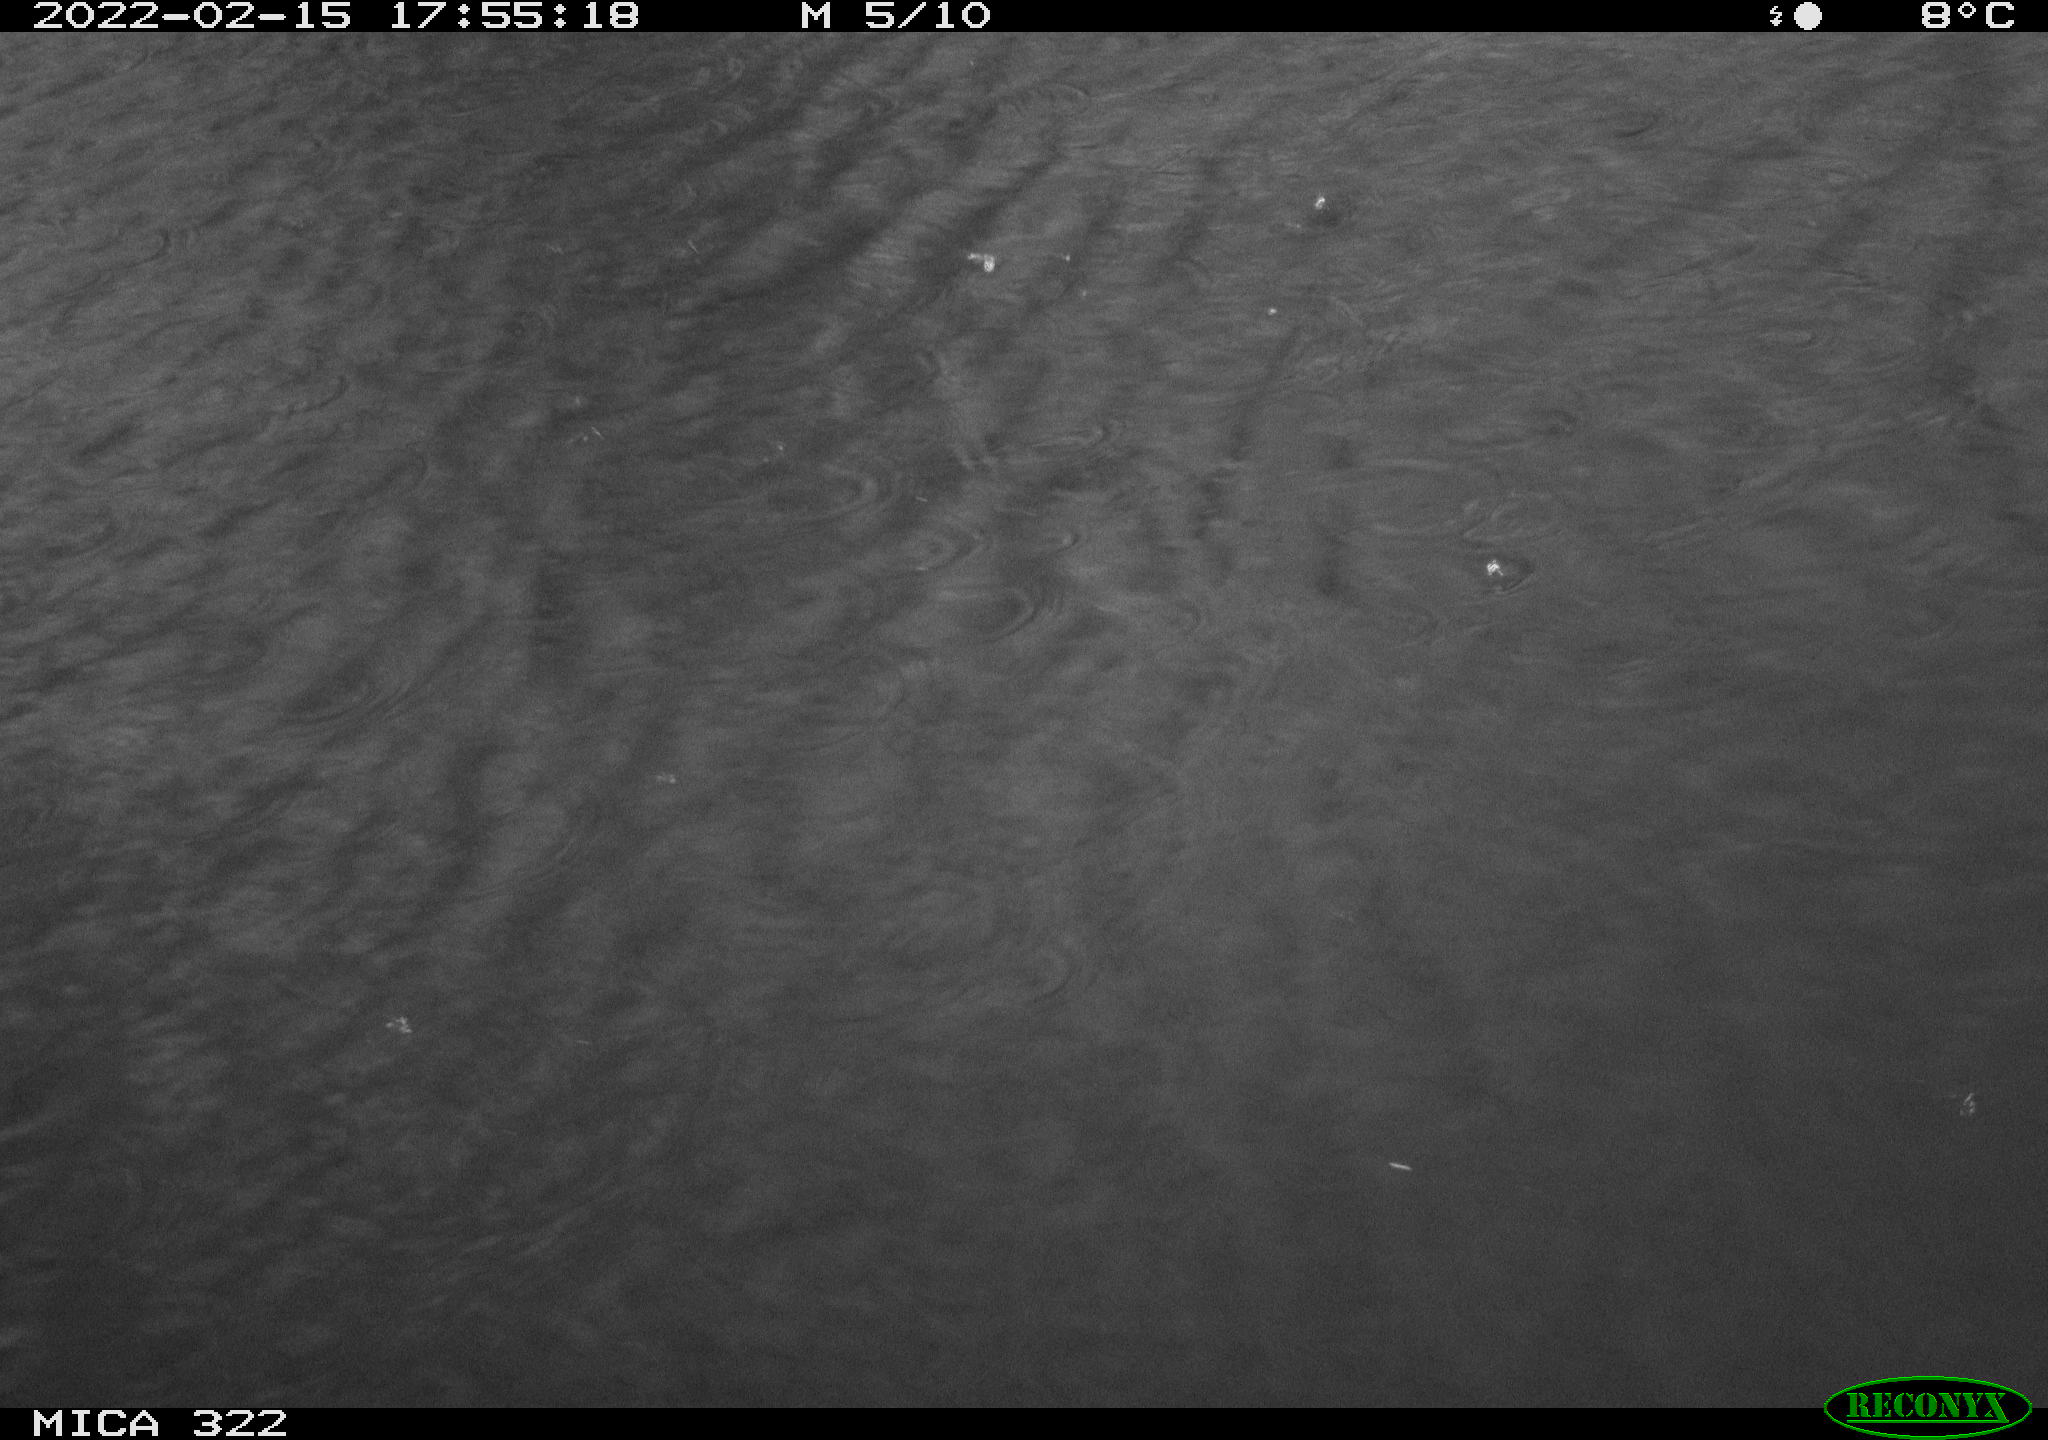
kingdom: Animalia
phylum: Chordata
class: Aves
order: Anseriformes
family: Anatidae
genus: Mareca
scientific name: Mareca strepera
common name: Gadwall
